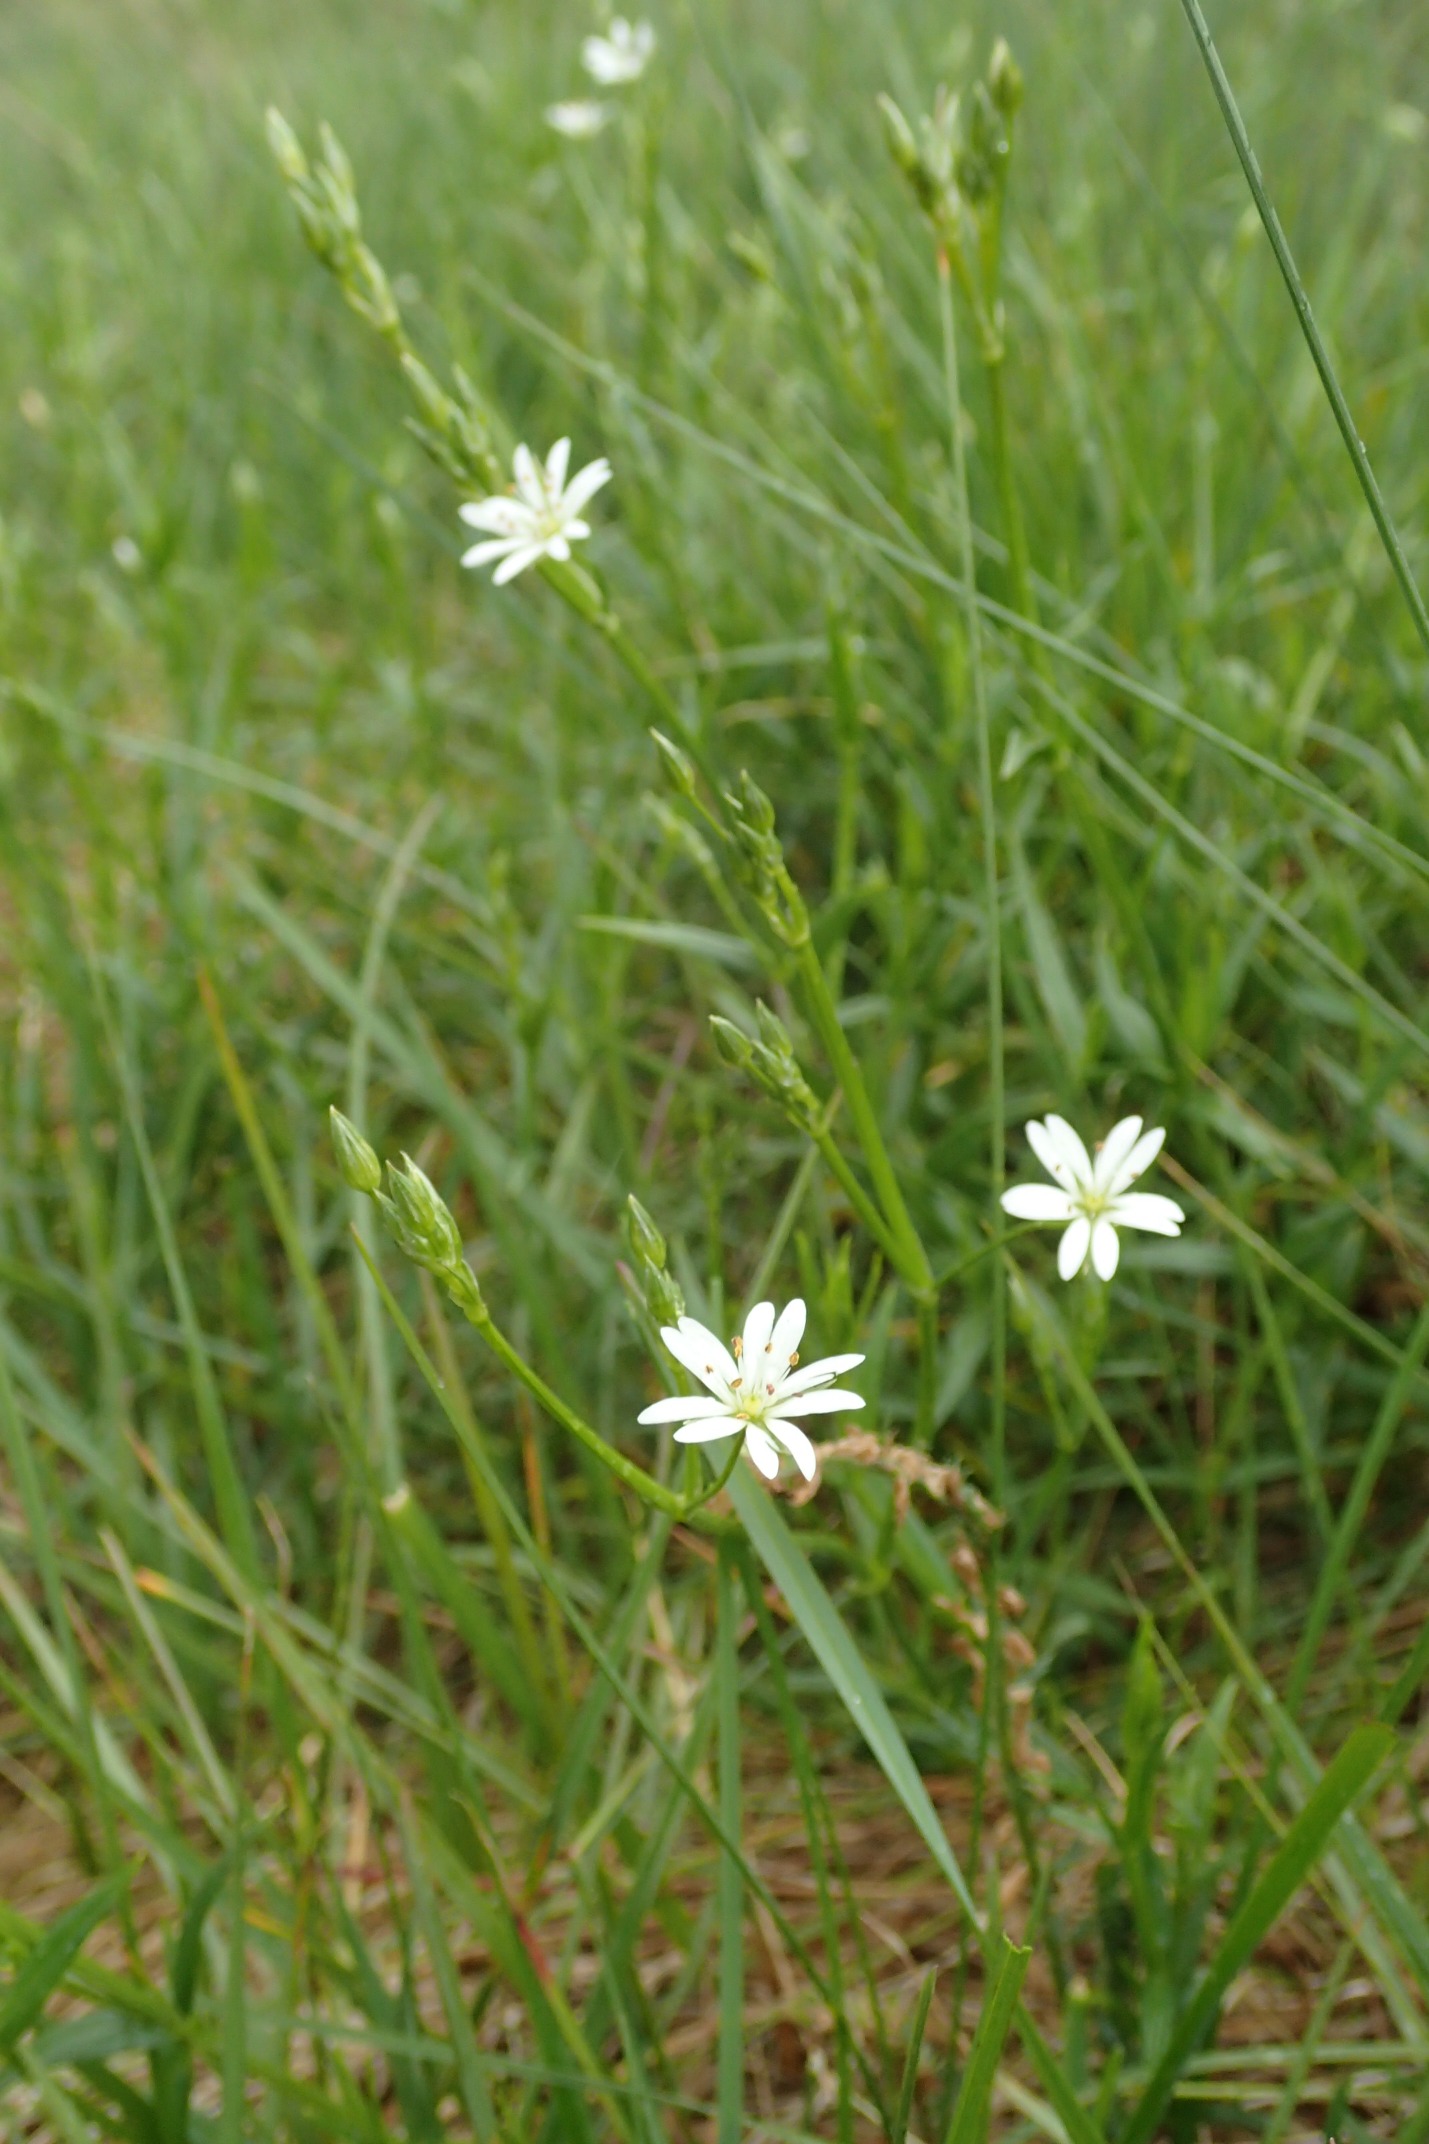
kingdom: Plantae
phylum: Tracheophyta
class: Magnoliopsida
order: Caryophyllales
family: Caryophyllaceae
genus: Stellaria
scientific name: Stellaria graminea
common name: Græsbladet fladstjerne
